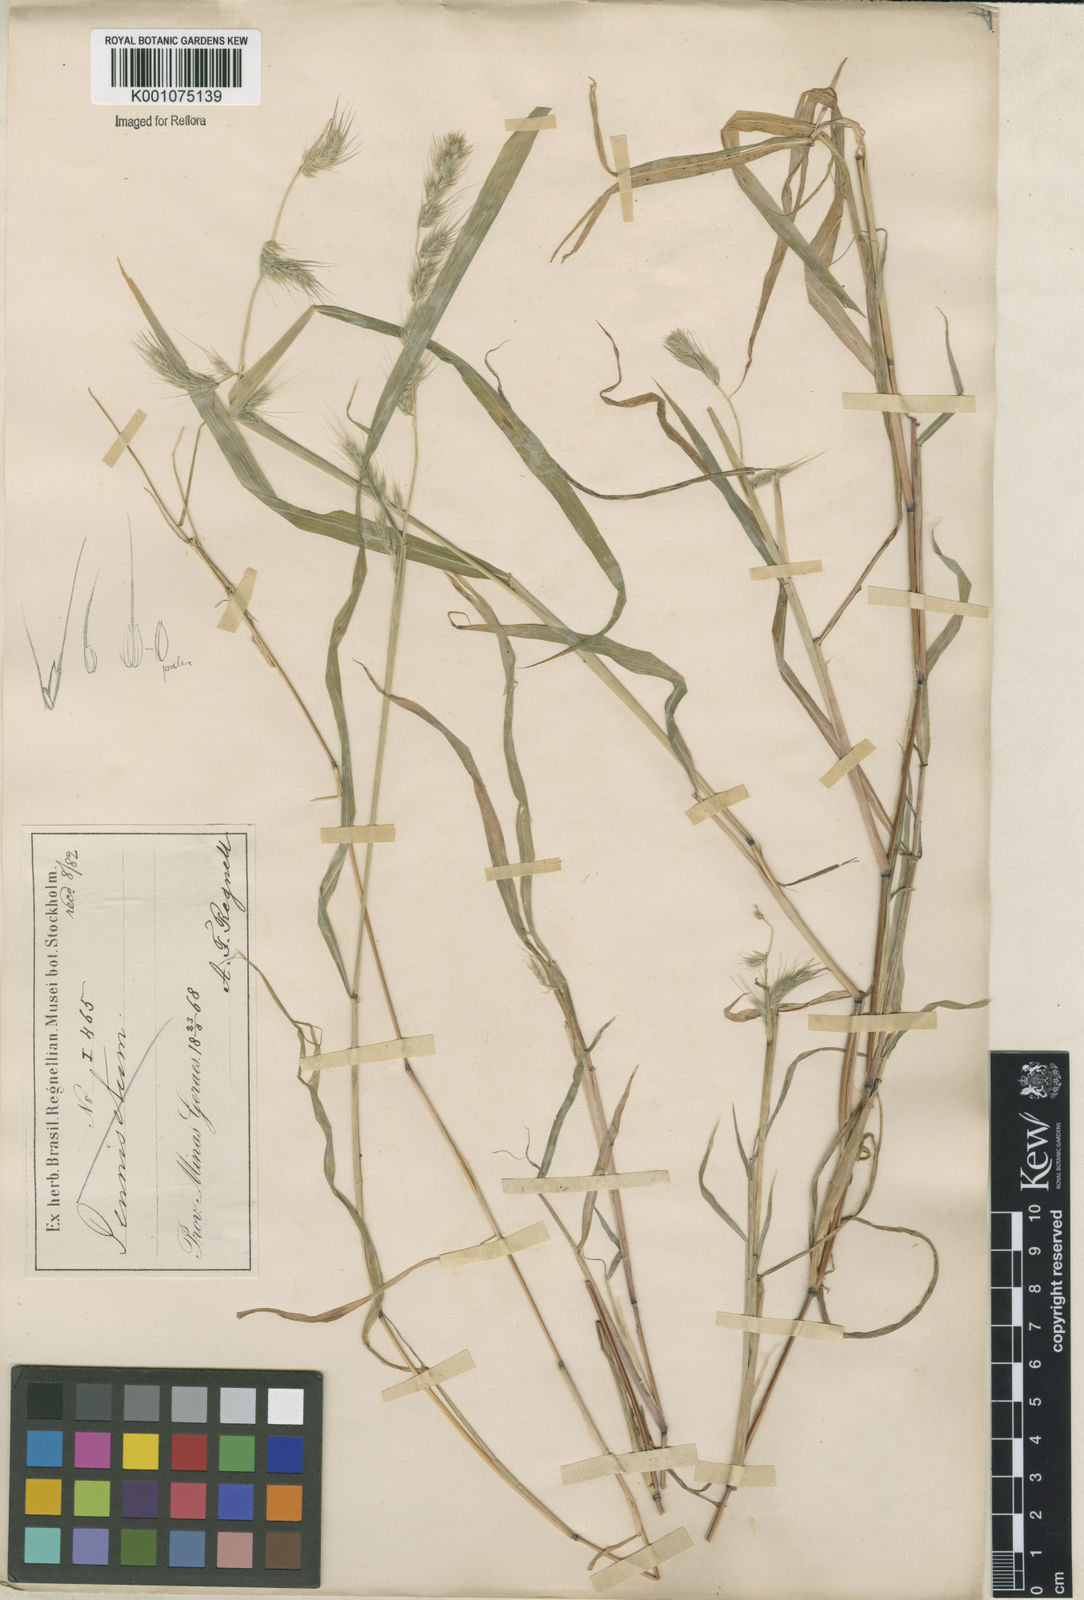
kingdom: Plantae
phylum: Tracheophyta
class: Liliopsida
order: Poales
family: Poaceae
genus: Muhlenbergia
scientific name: Muhlenbergia beyrichiana
